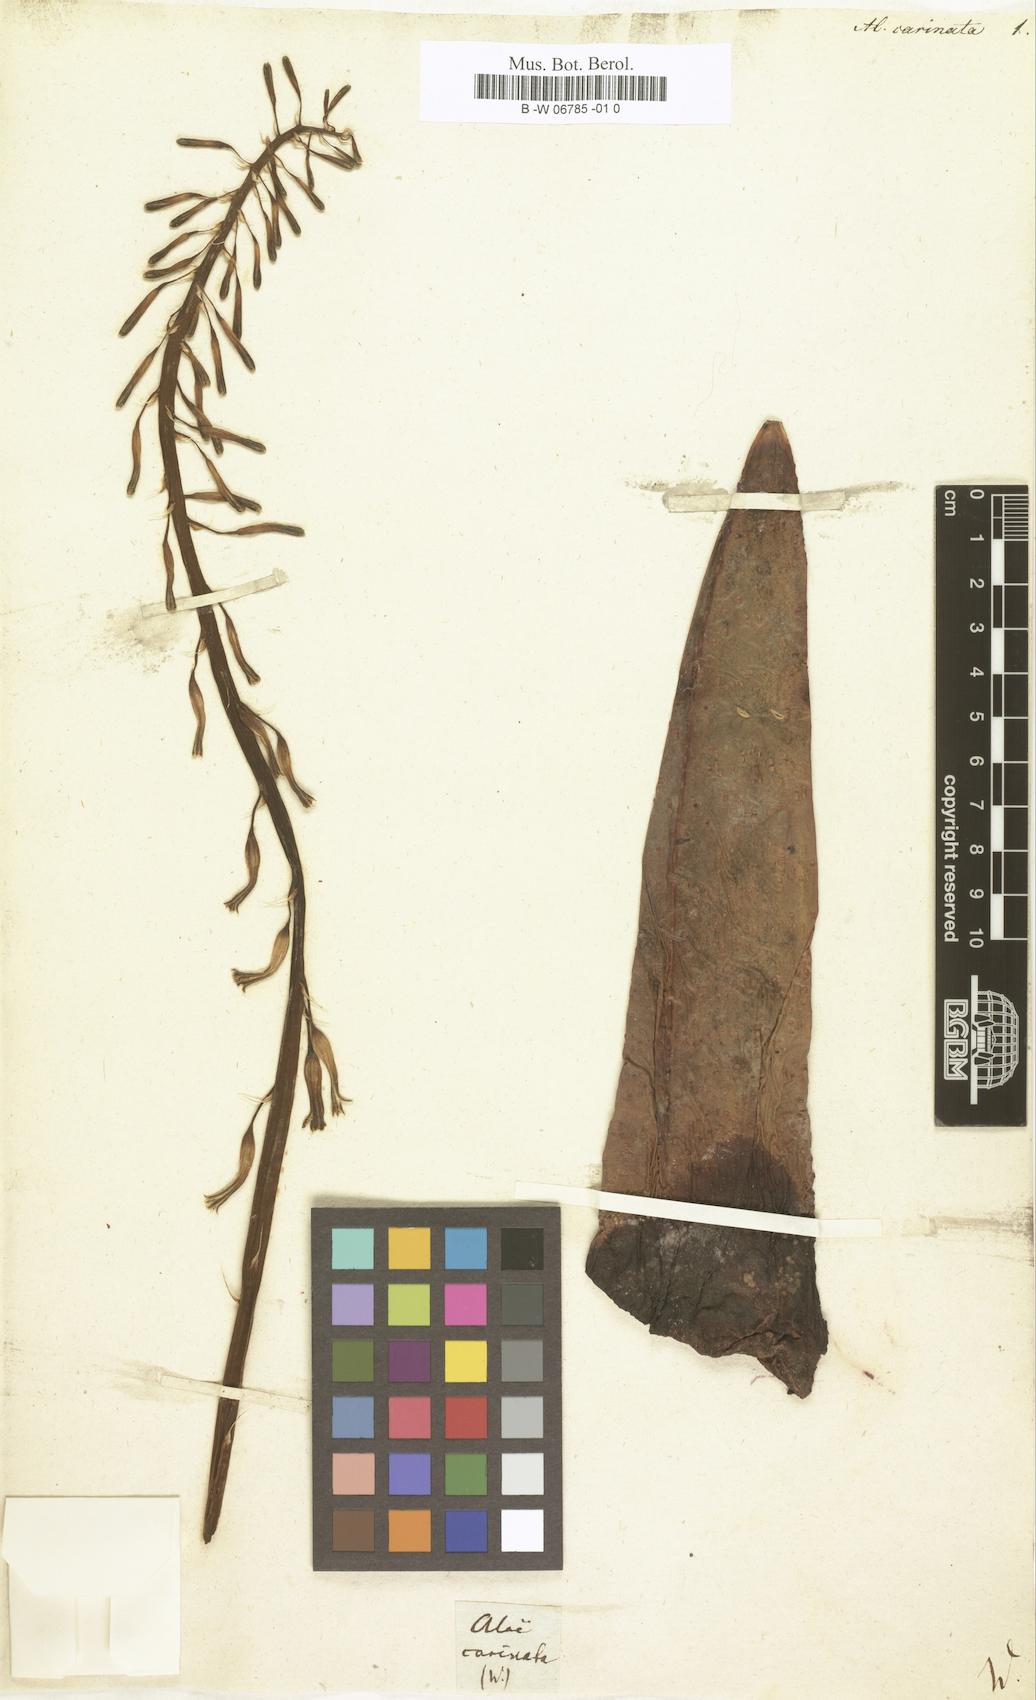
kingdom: Plantae
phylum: Tracheophyta
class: Liliopsida
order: Asparagales
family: Asphodelaceae
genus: Gasteria
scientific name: Gasteria carinata
